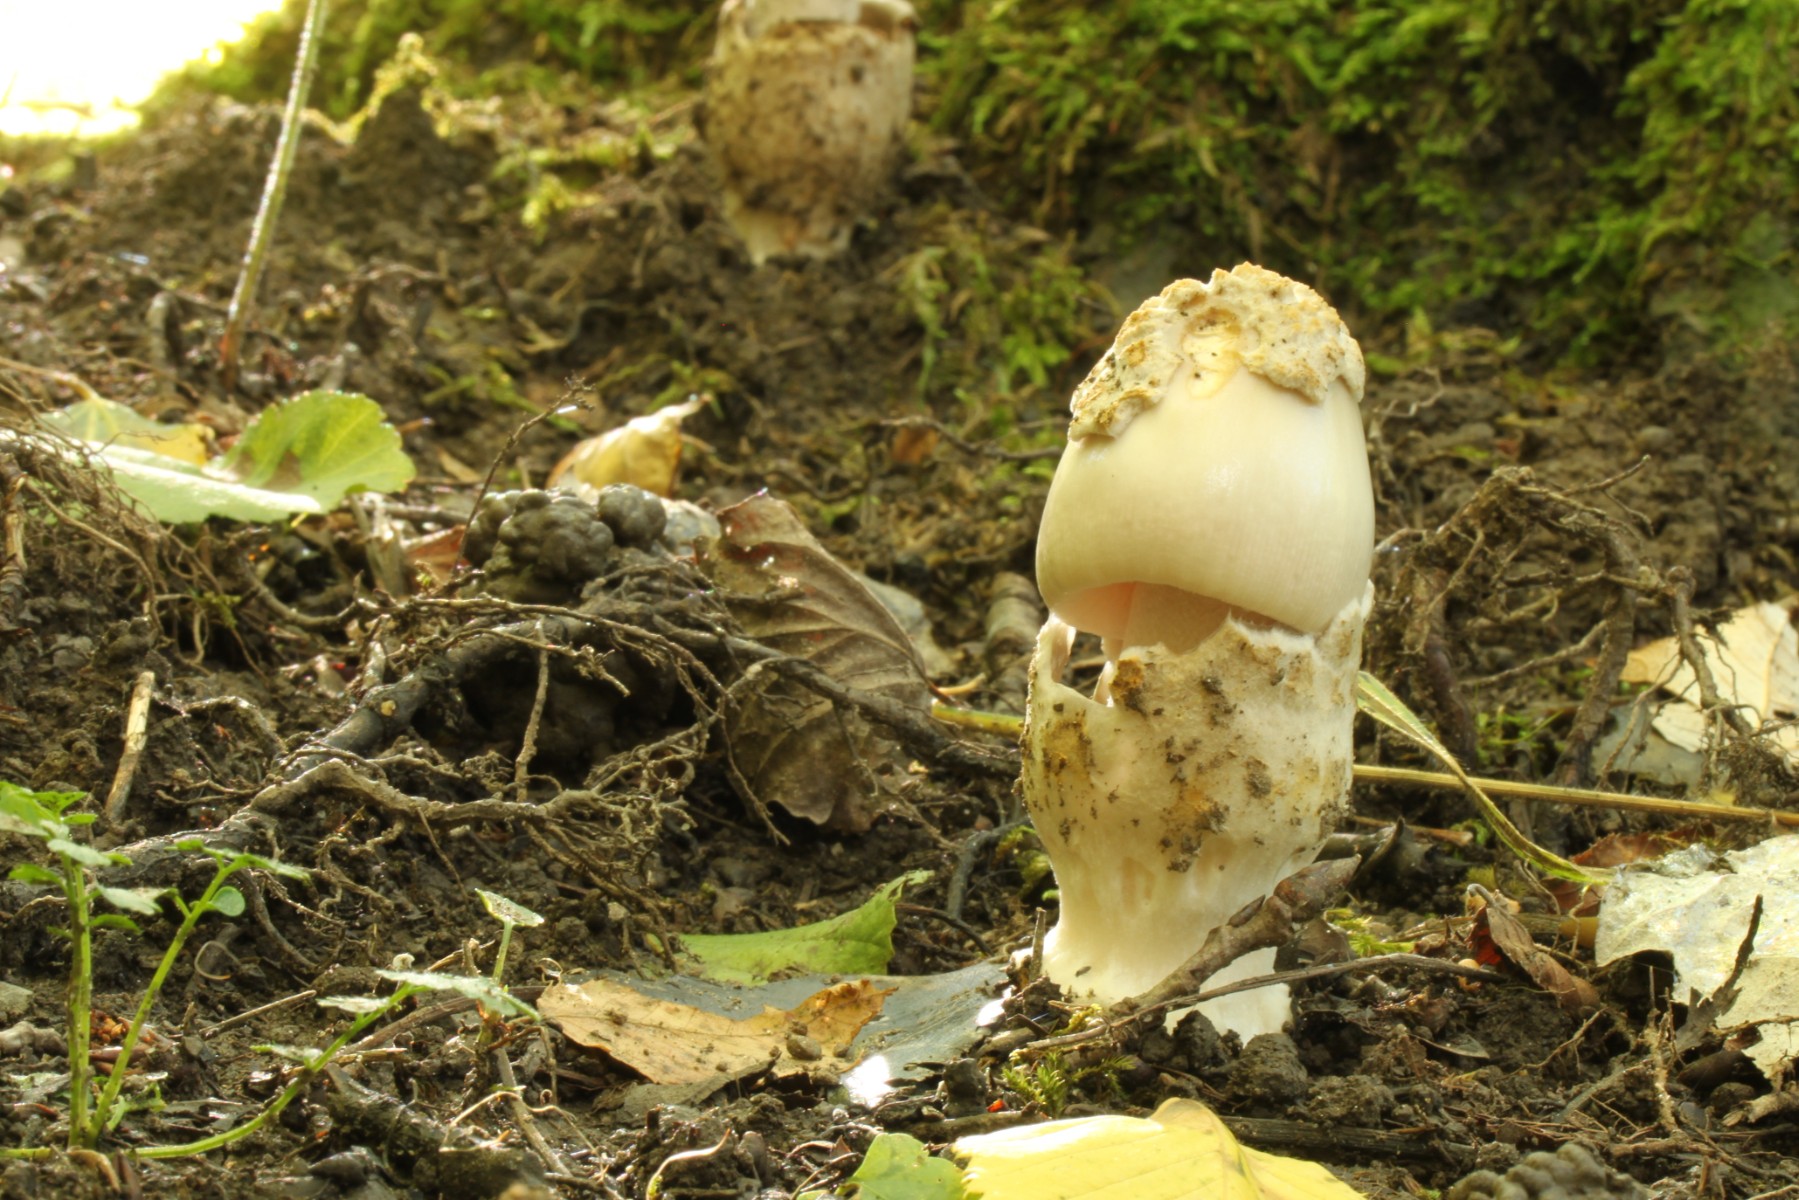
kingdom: Fungi
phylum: Basidiomycota
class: Agaricomycetes
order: Agaricales
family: Amanitaceae
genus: Amanita
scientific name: Amanita
